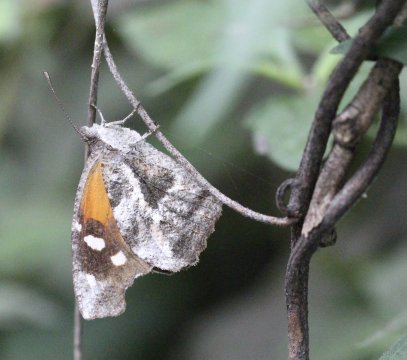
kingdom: Animalia
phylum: Arthropoda
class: Insecta
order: Lepidoptera
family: Nymphalidae
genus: Libytheana
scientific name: Libytheana carinenta
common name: American Snout
